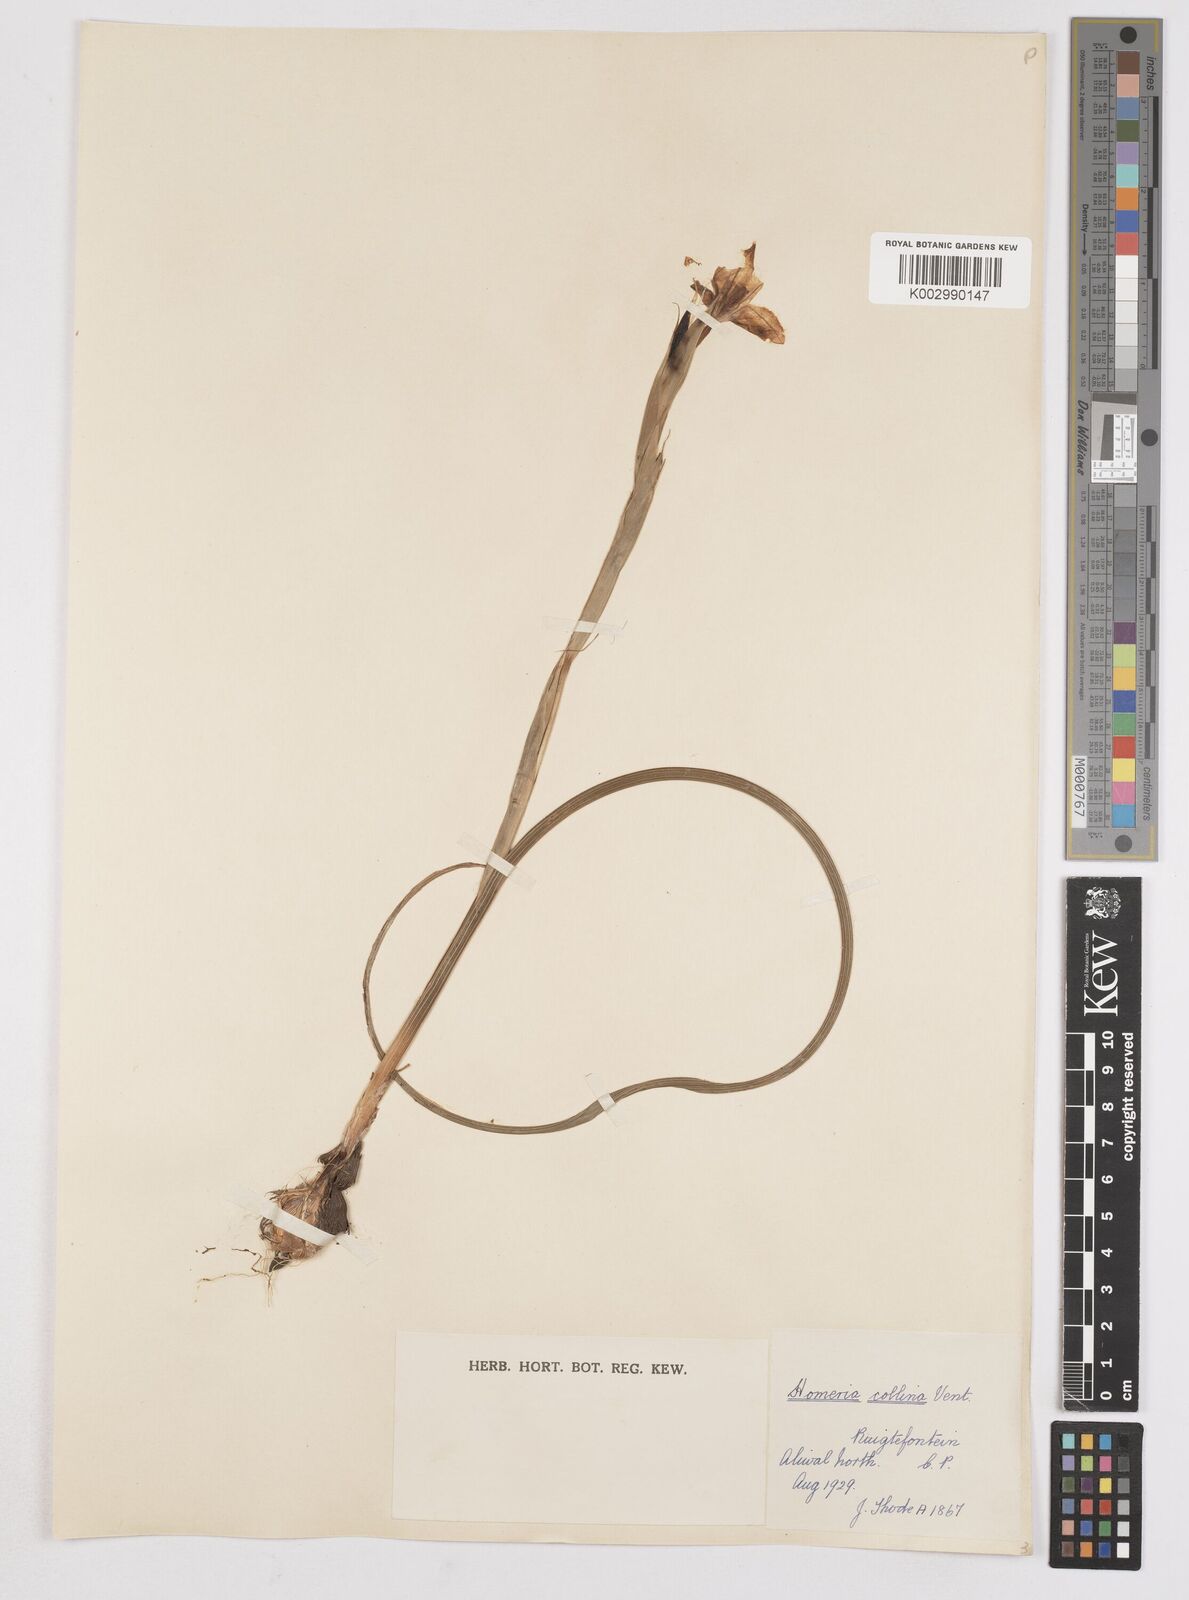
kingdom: Plantae
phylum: Tracheophyta
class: Liliopsida
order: Asparagales
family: Iridaceae
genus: Moraea
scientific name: Moraea collina
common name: Cape-tulip
